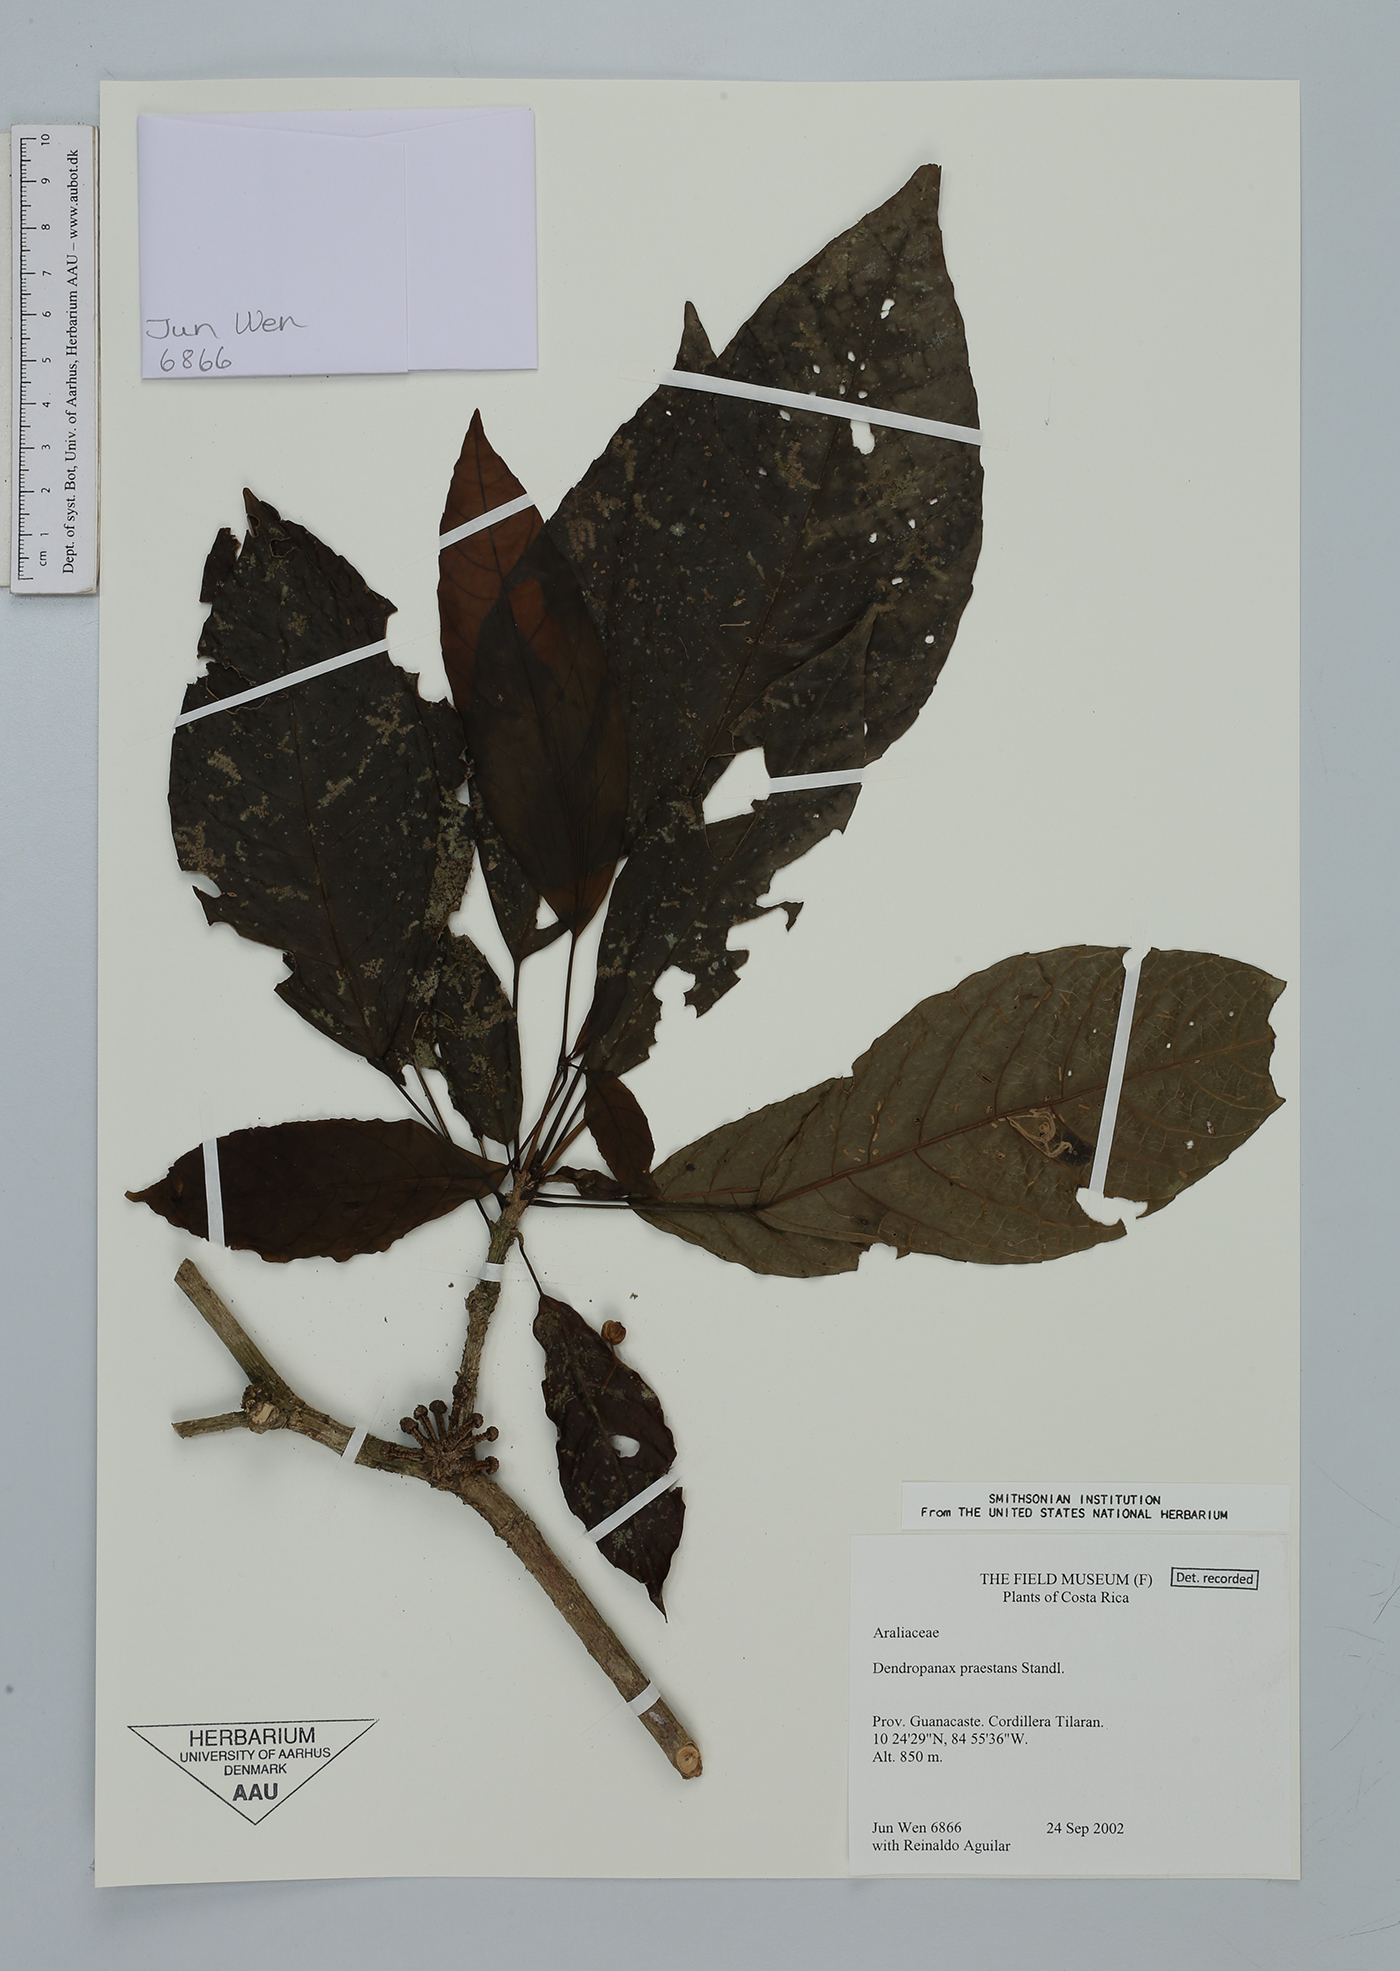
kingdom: Plantae
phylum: Tracheophyta
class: Magnoliopsida
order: Apiales
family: Araliaceae
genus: Dendropanax
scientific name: Dendropanax praestans
